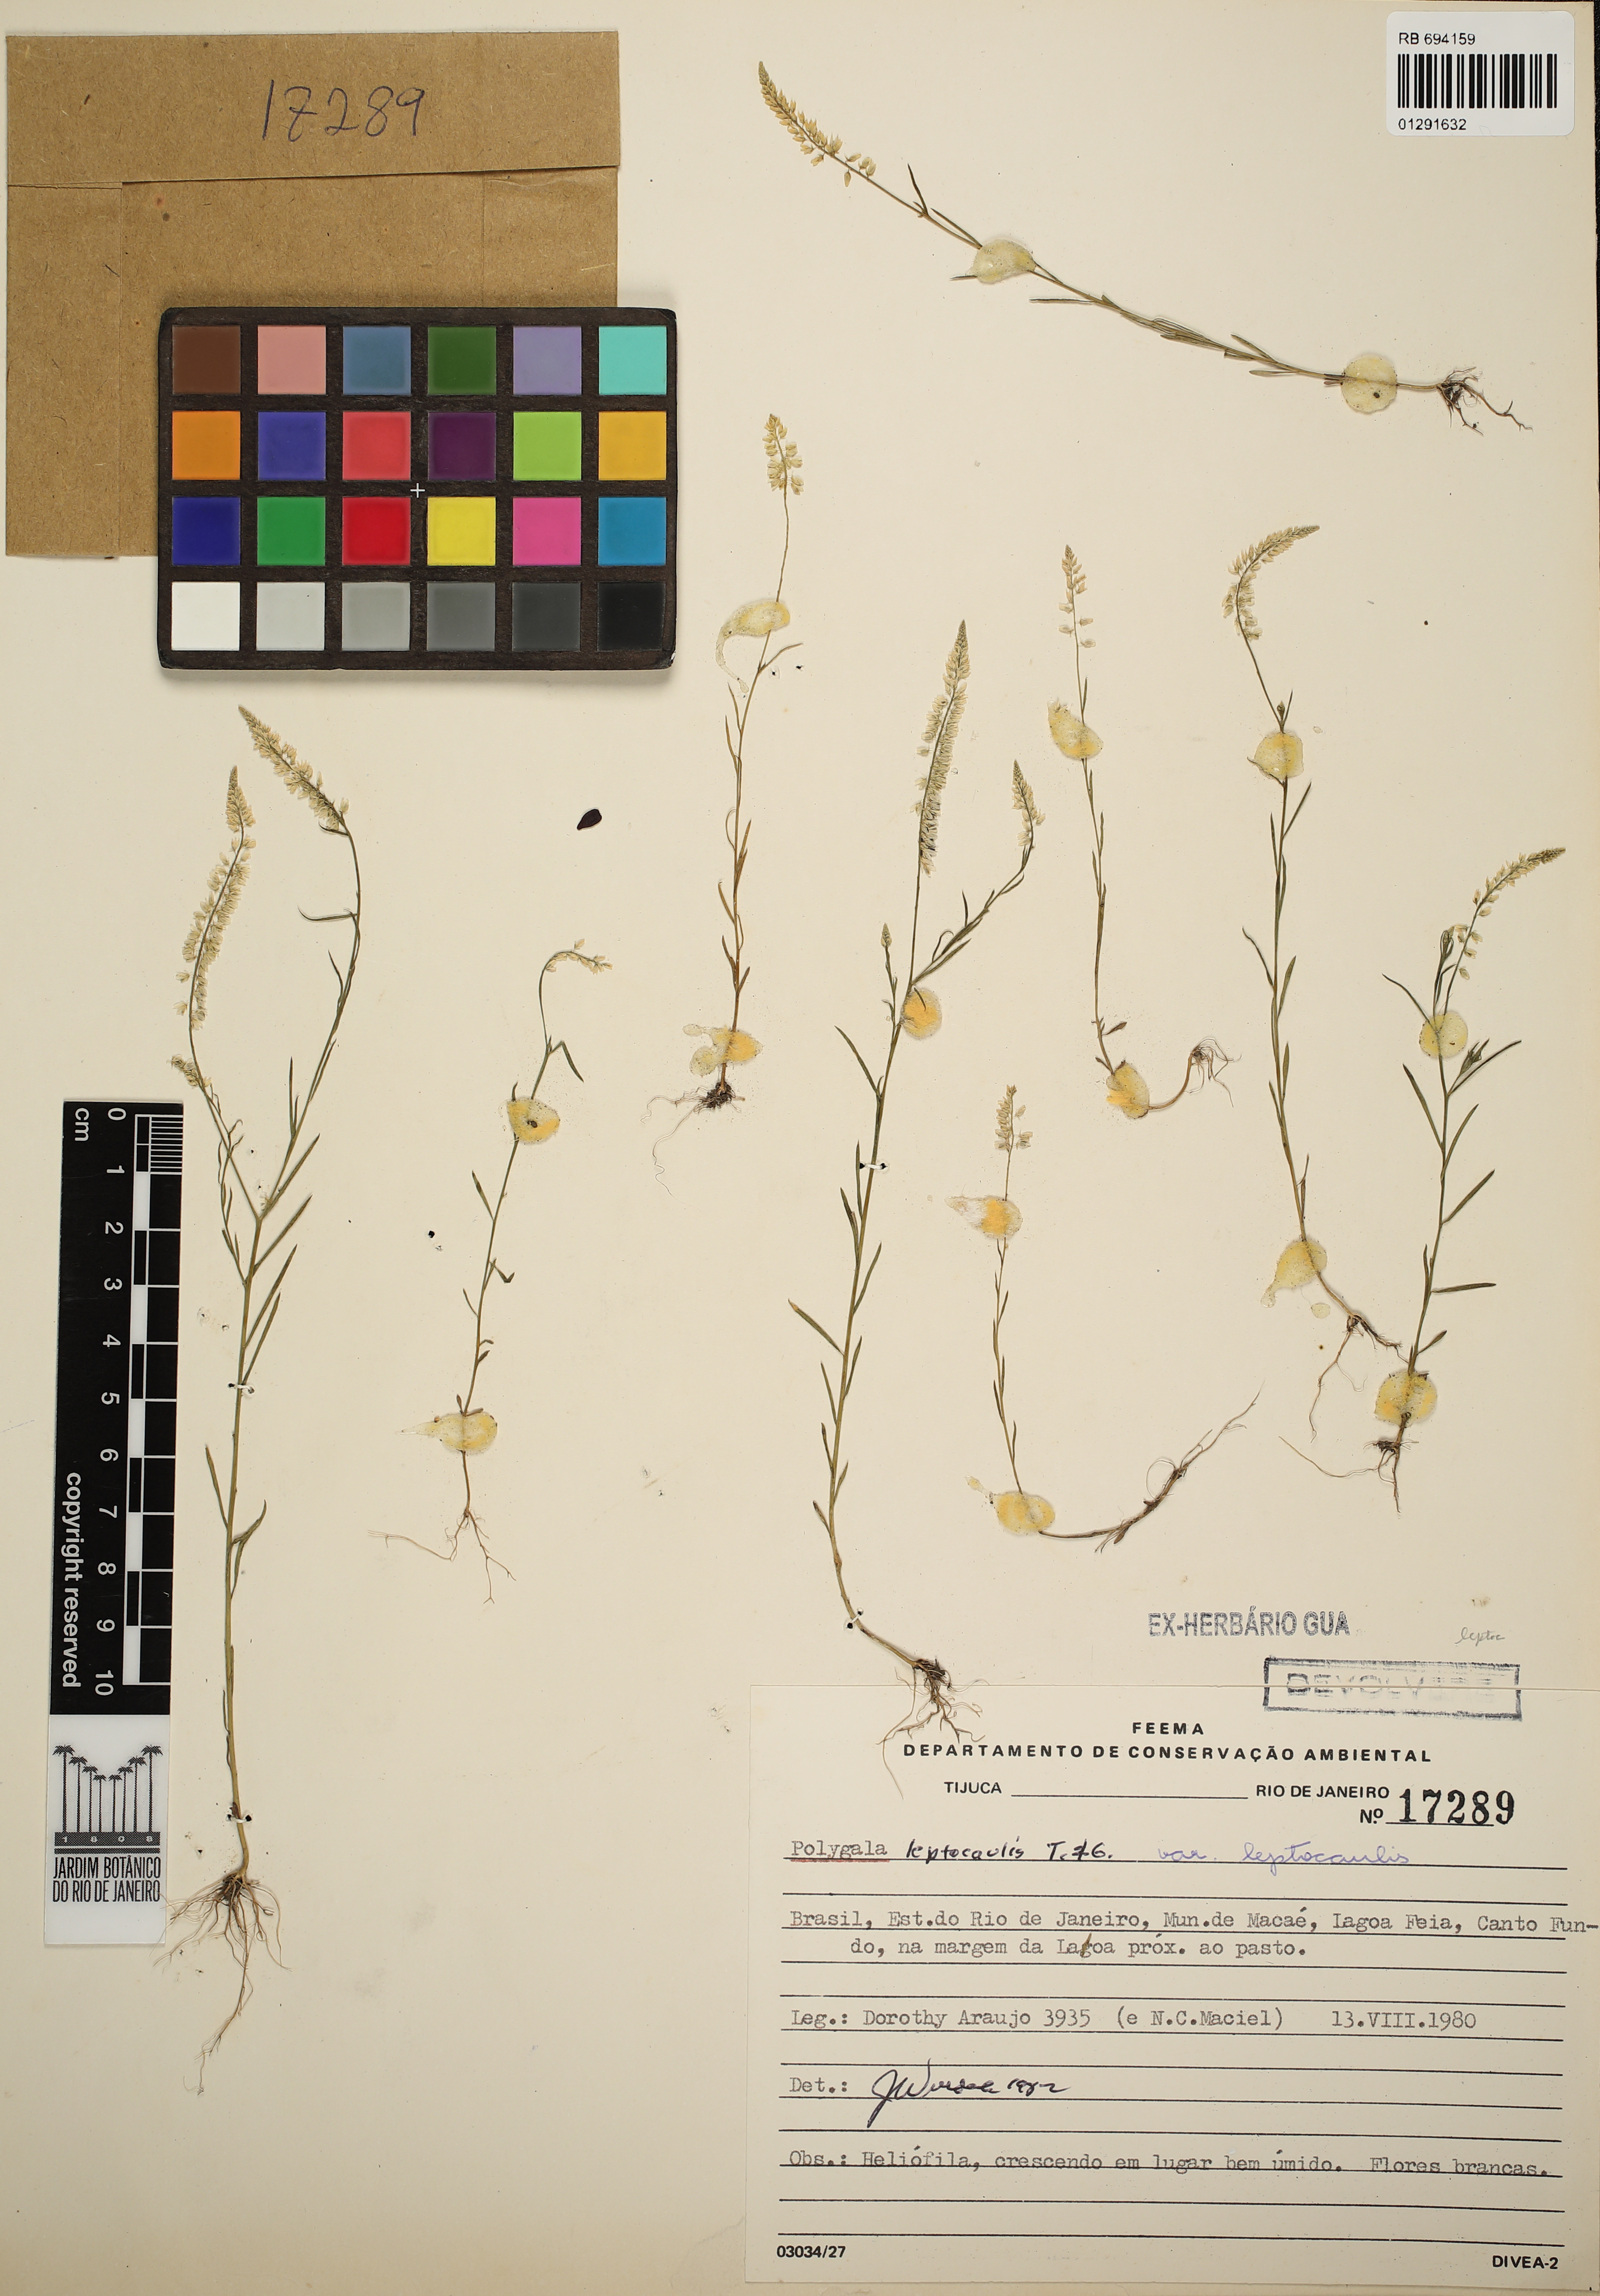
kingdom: Plantae
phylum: Tracheophyta
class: Magnoliopsida
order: Fabales
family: Polygalaceae
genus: Polygala
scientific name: Polygala tenella
